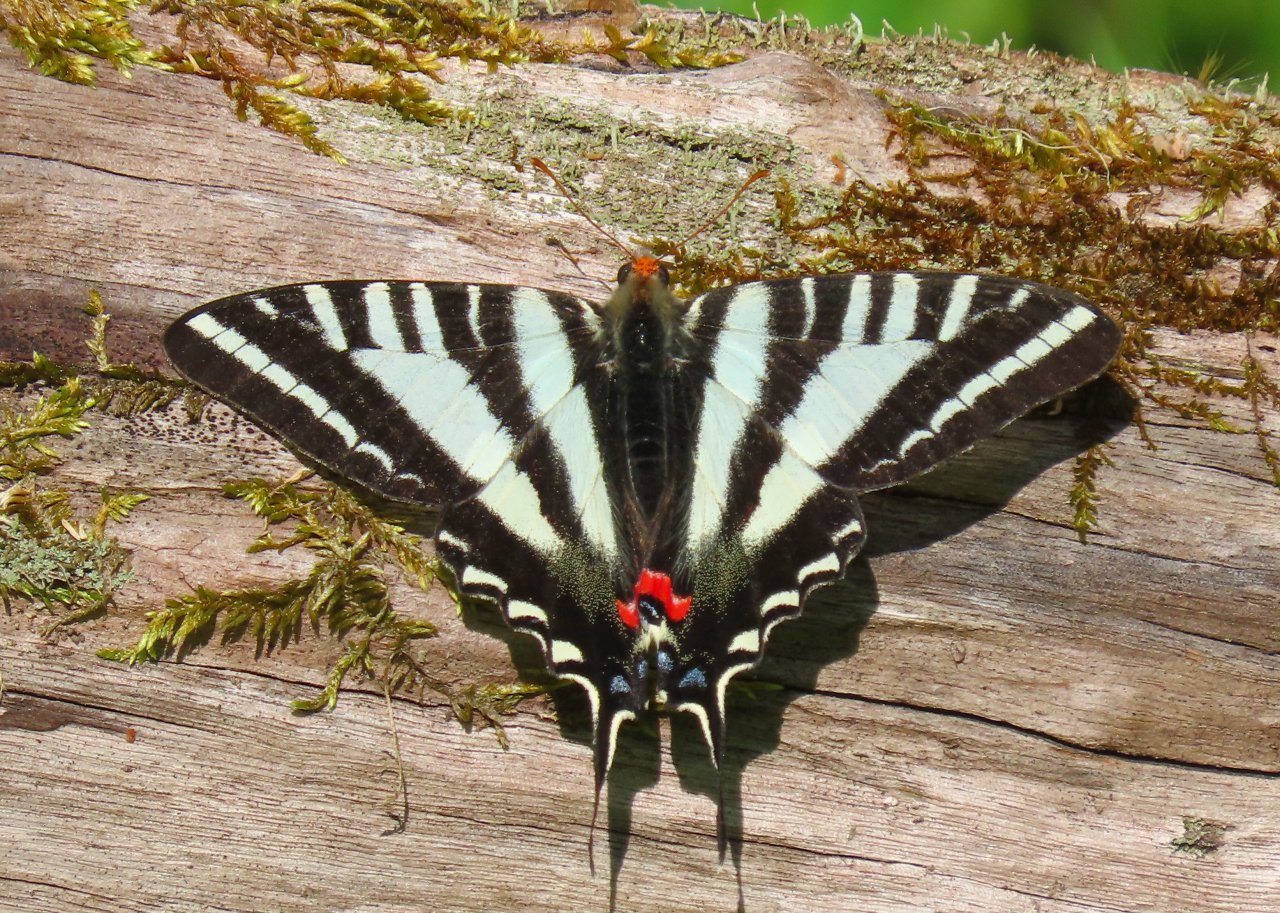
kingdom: Animalia
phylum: Arthropoda
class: Insecta
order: Lepidoptera
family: Papilionidae
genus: Protographium
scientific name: Protographium marcellus
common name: Zebra Swallowtail
